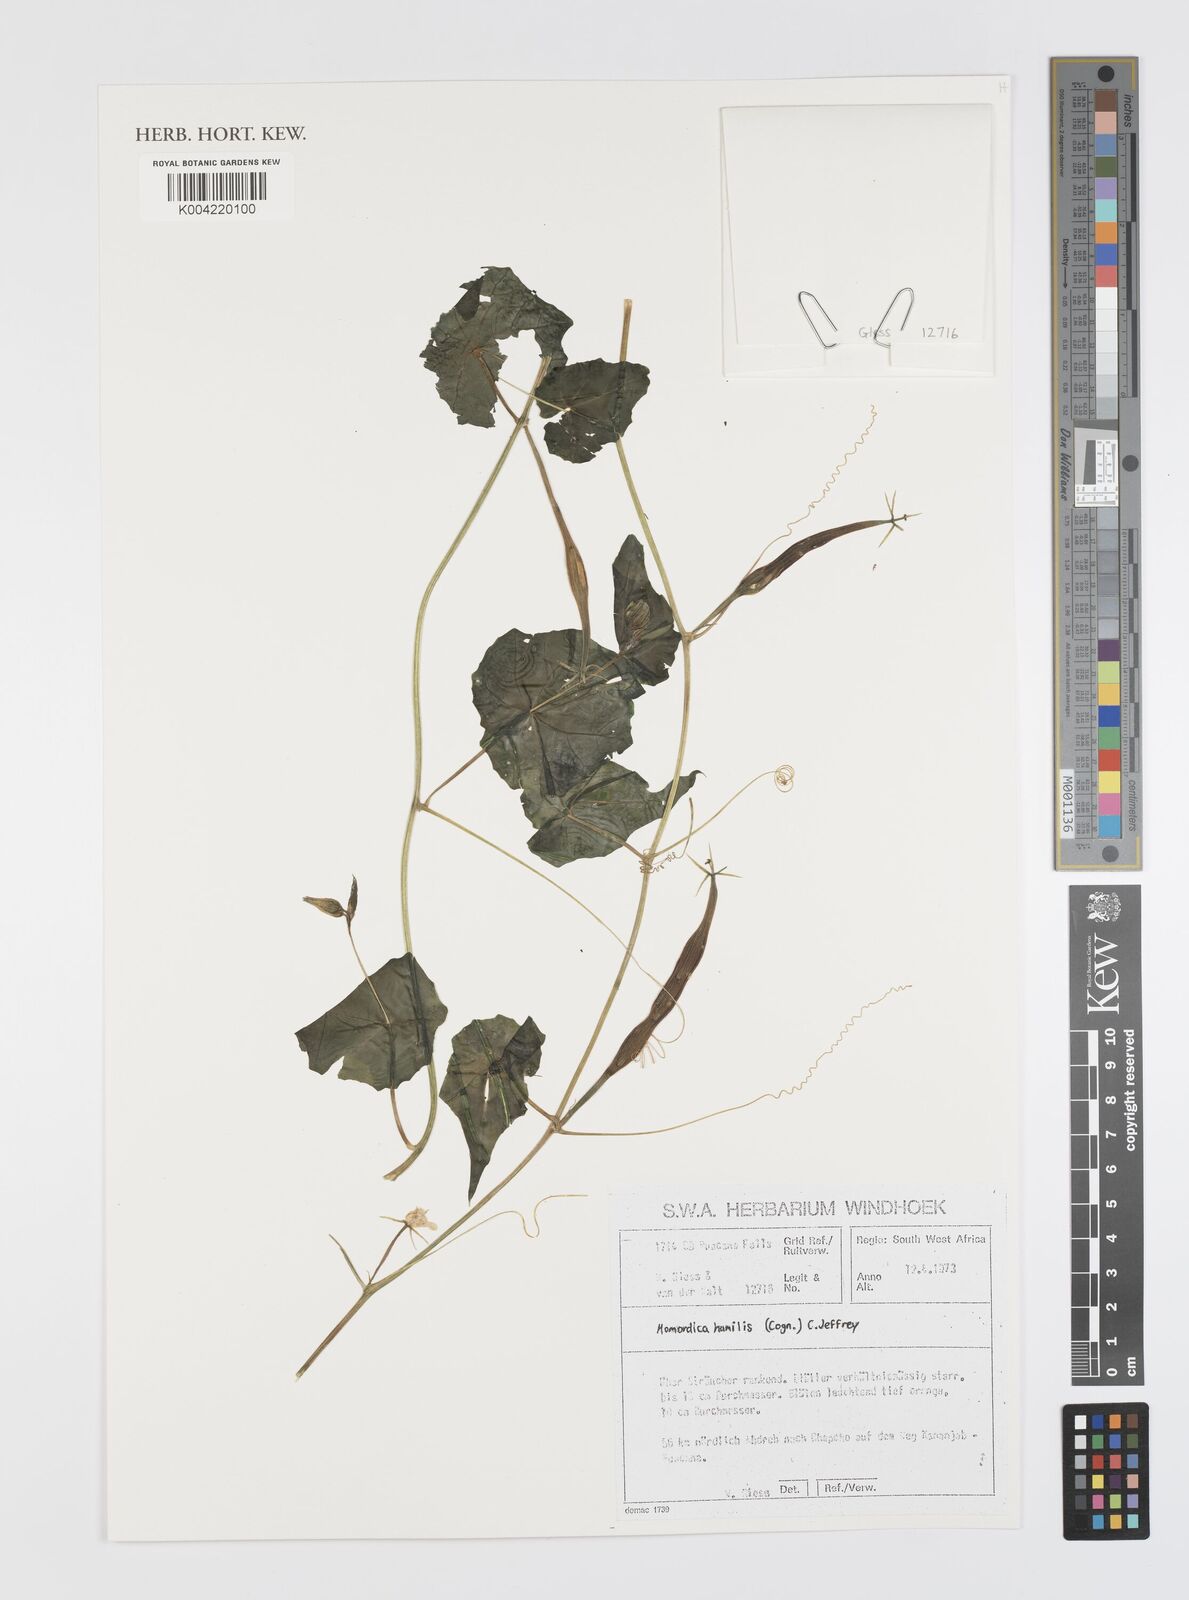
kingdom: Plantae
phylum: Tracheophyta
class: Magnoliopsida
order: Cucurbitales
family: Cucurbitaceae
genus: Momordica
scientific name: Momordica
